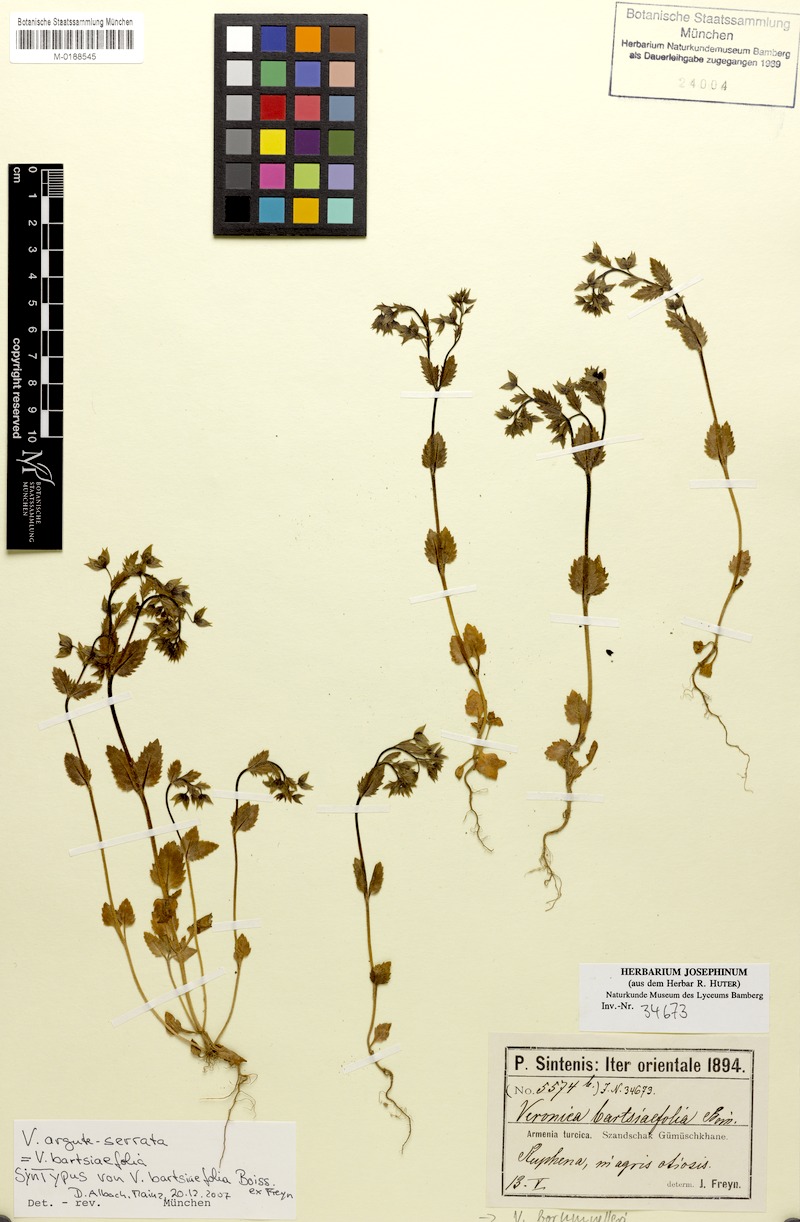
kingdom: Plantae
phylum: Tracheophyta
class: Magnoliopsida
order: Lamiales
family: Plantaginaceae
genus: Veronica
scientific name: Veronica argute-serrata
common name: Sawtooth speedwell
